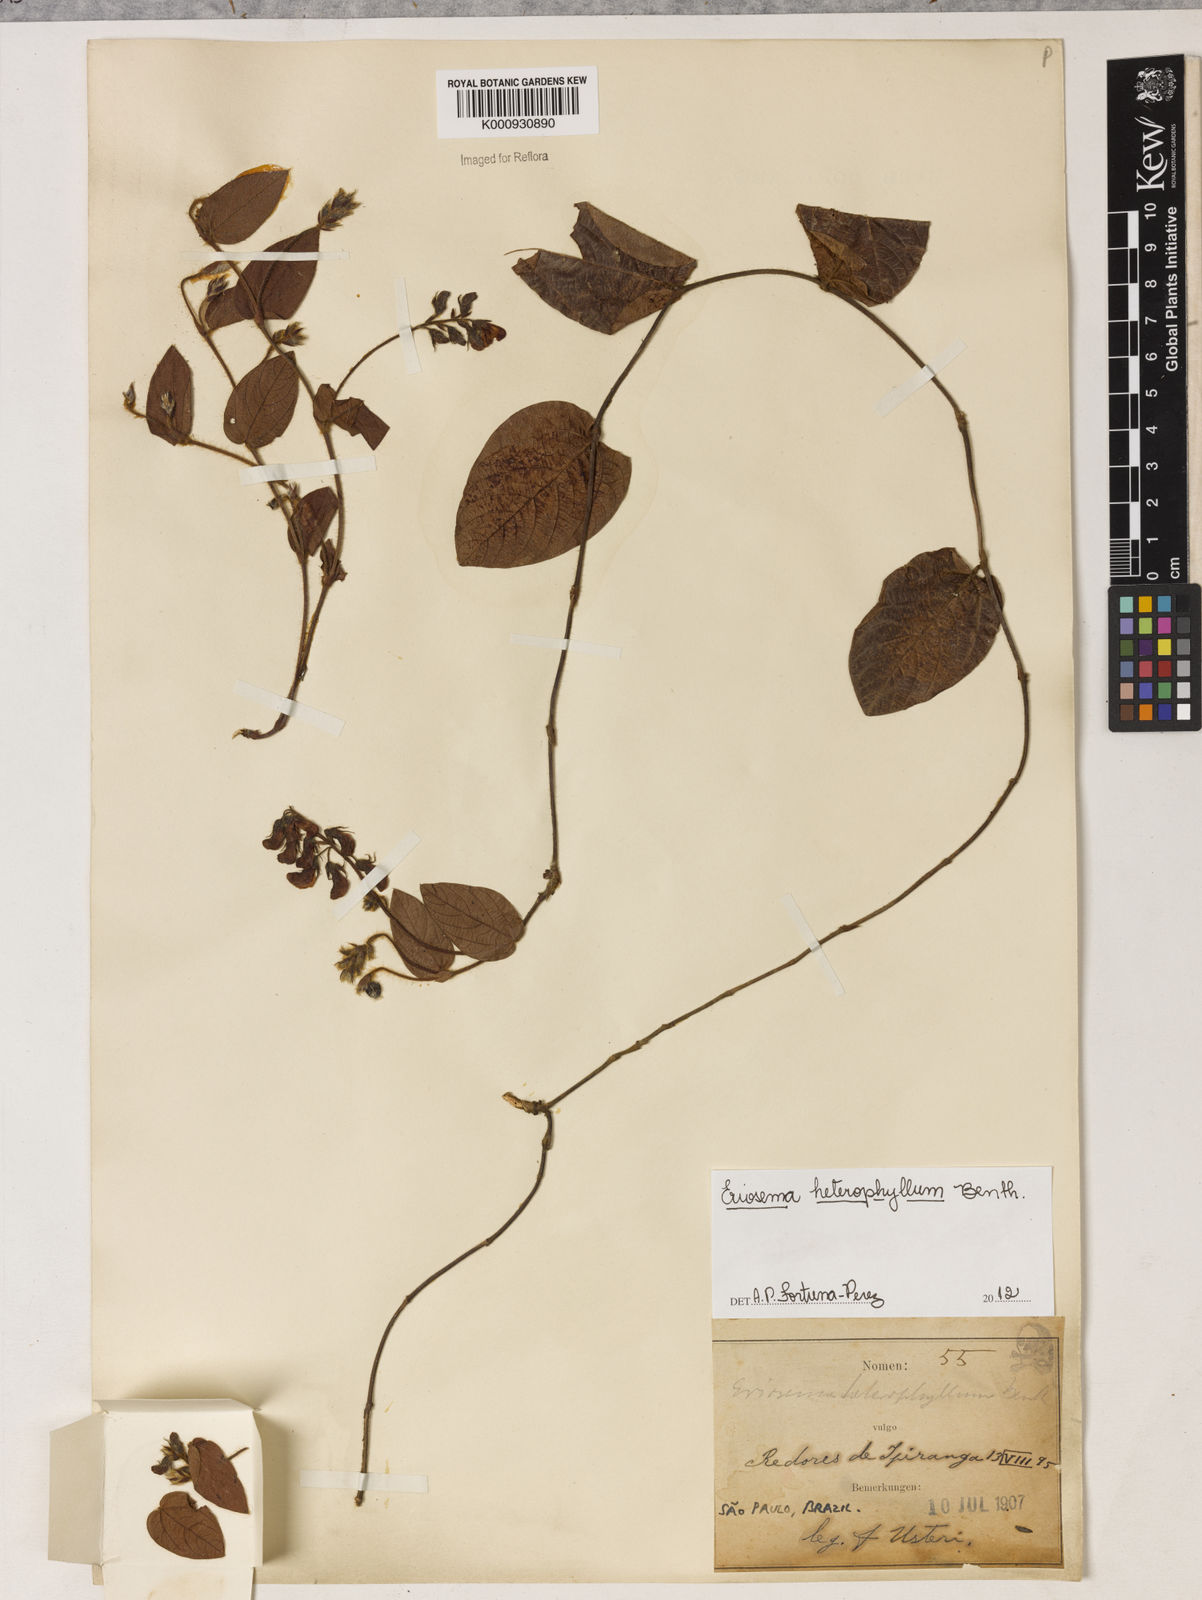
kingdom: Plantae
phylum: Tracheophyta
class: Magnoliopsida
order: Fabales
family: Fabaceae
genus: Eriosema
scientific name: Eriosema heterophyllum
